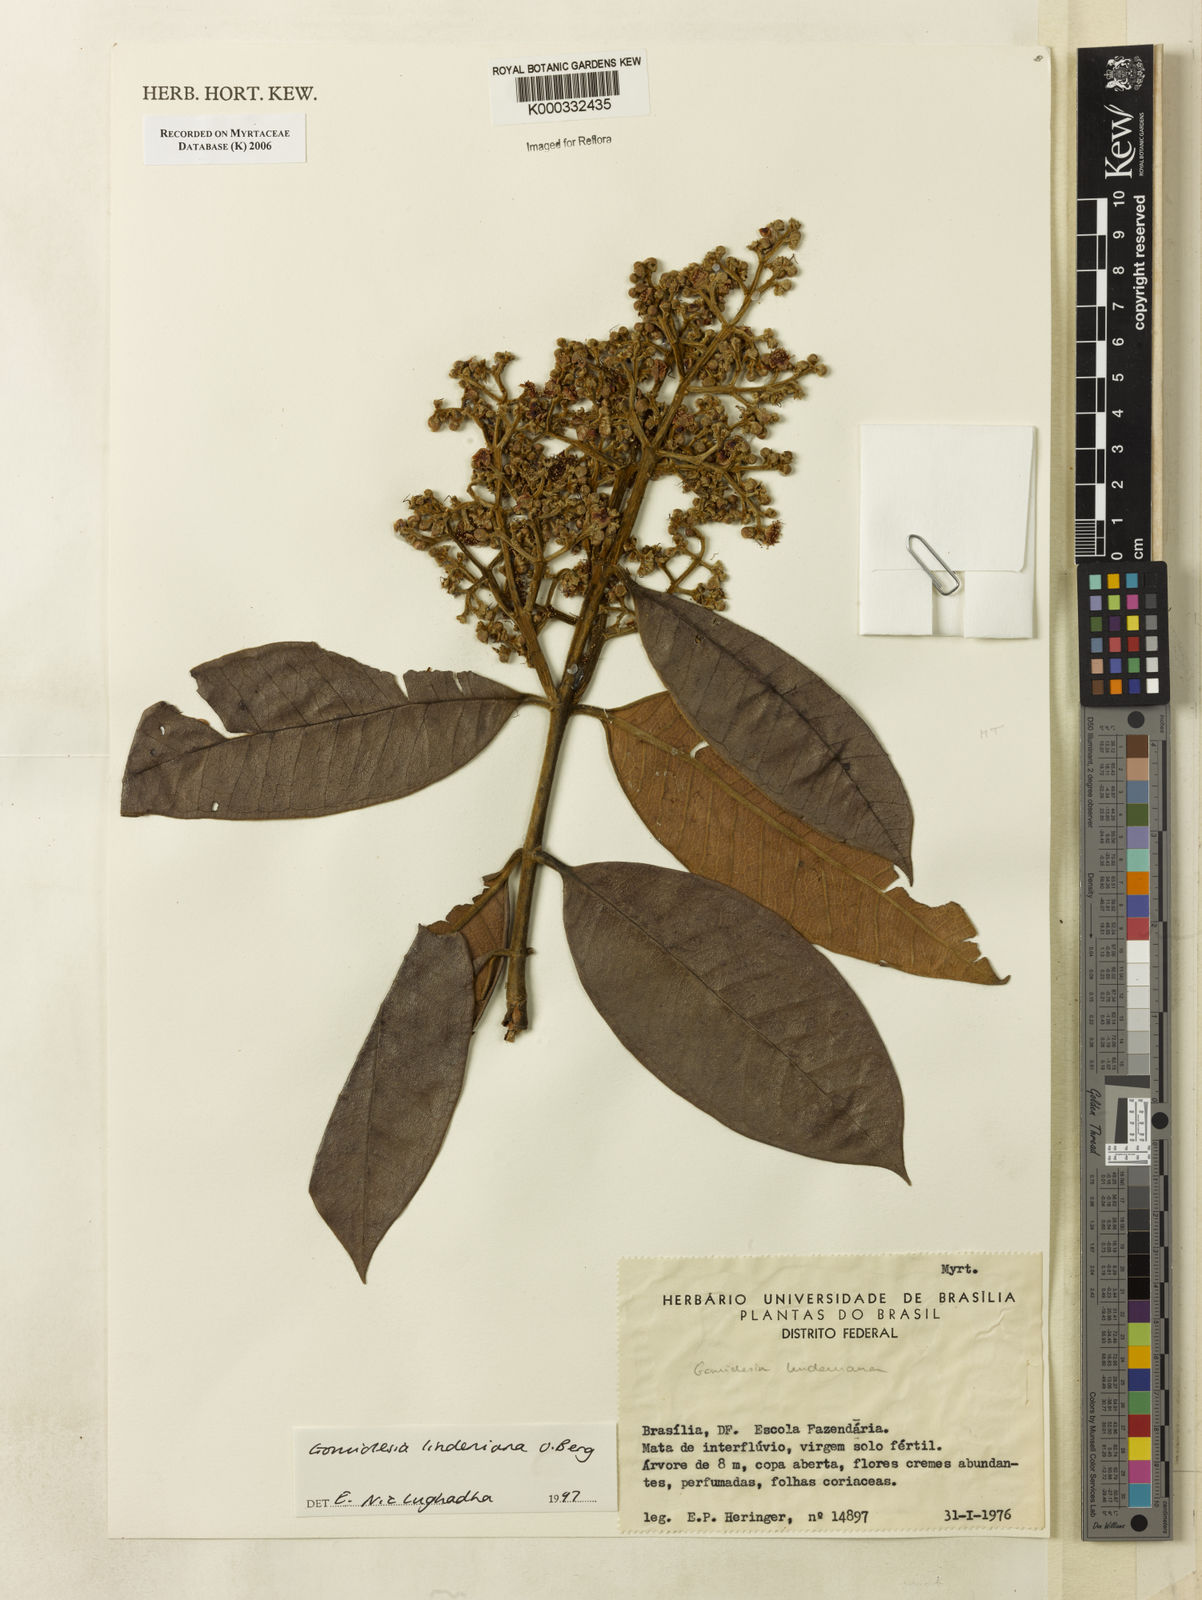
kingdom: Plantae
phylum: Tracheophyta
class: Magnoliopsida
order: Myrtales
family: Myrtaceae
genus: Myrcia
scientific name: Myrcia fenzliana
